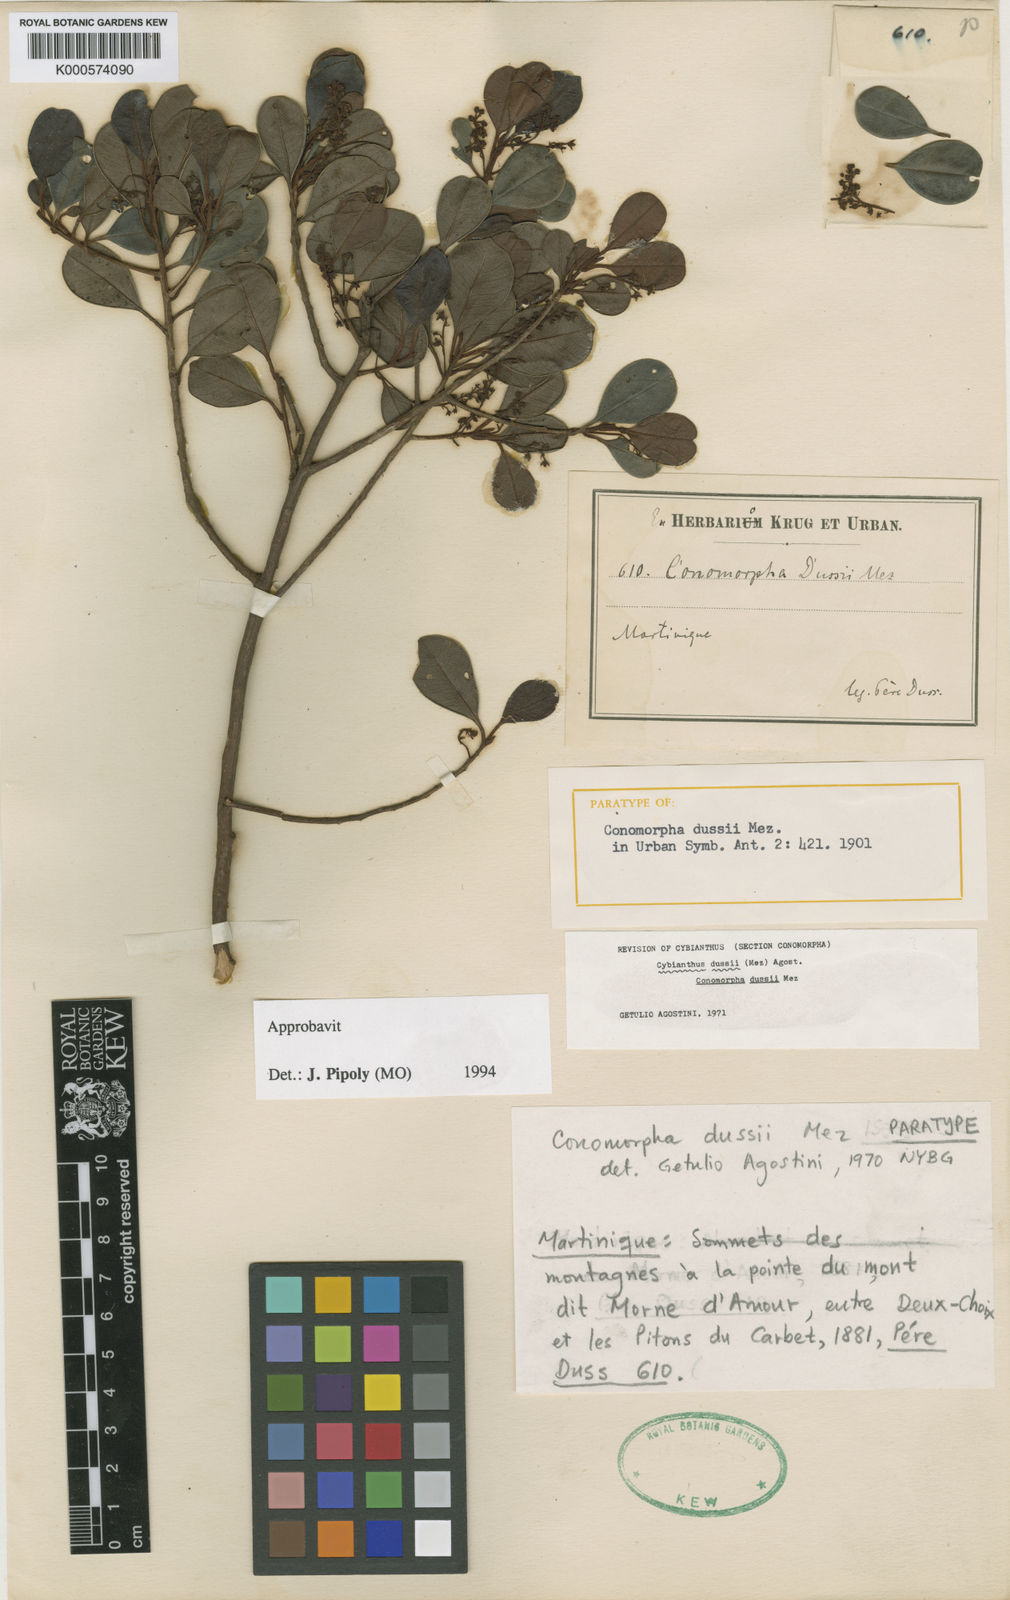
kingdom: Plantae
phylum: Tracheophyta
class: Magnoliopsida
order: Ericales
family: Primulaceae
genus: Cybianthus
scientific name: Cybianthus dussii
